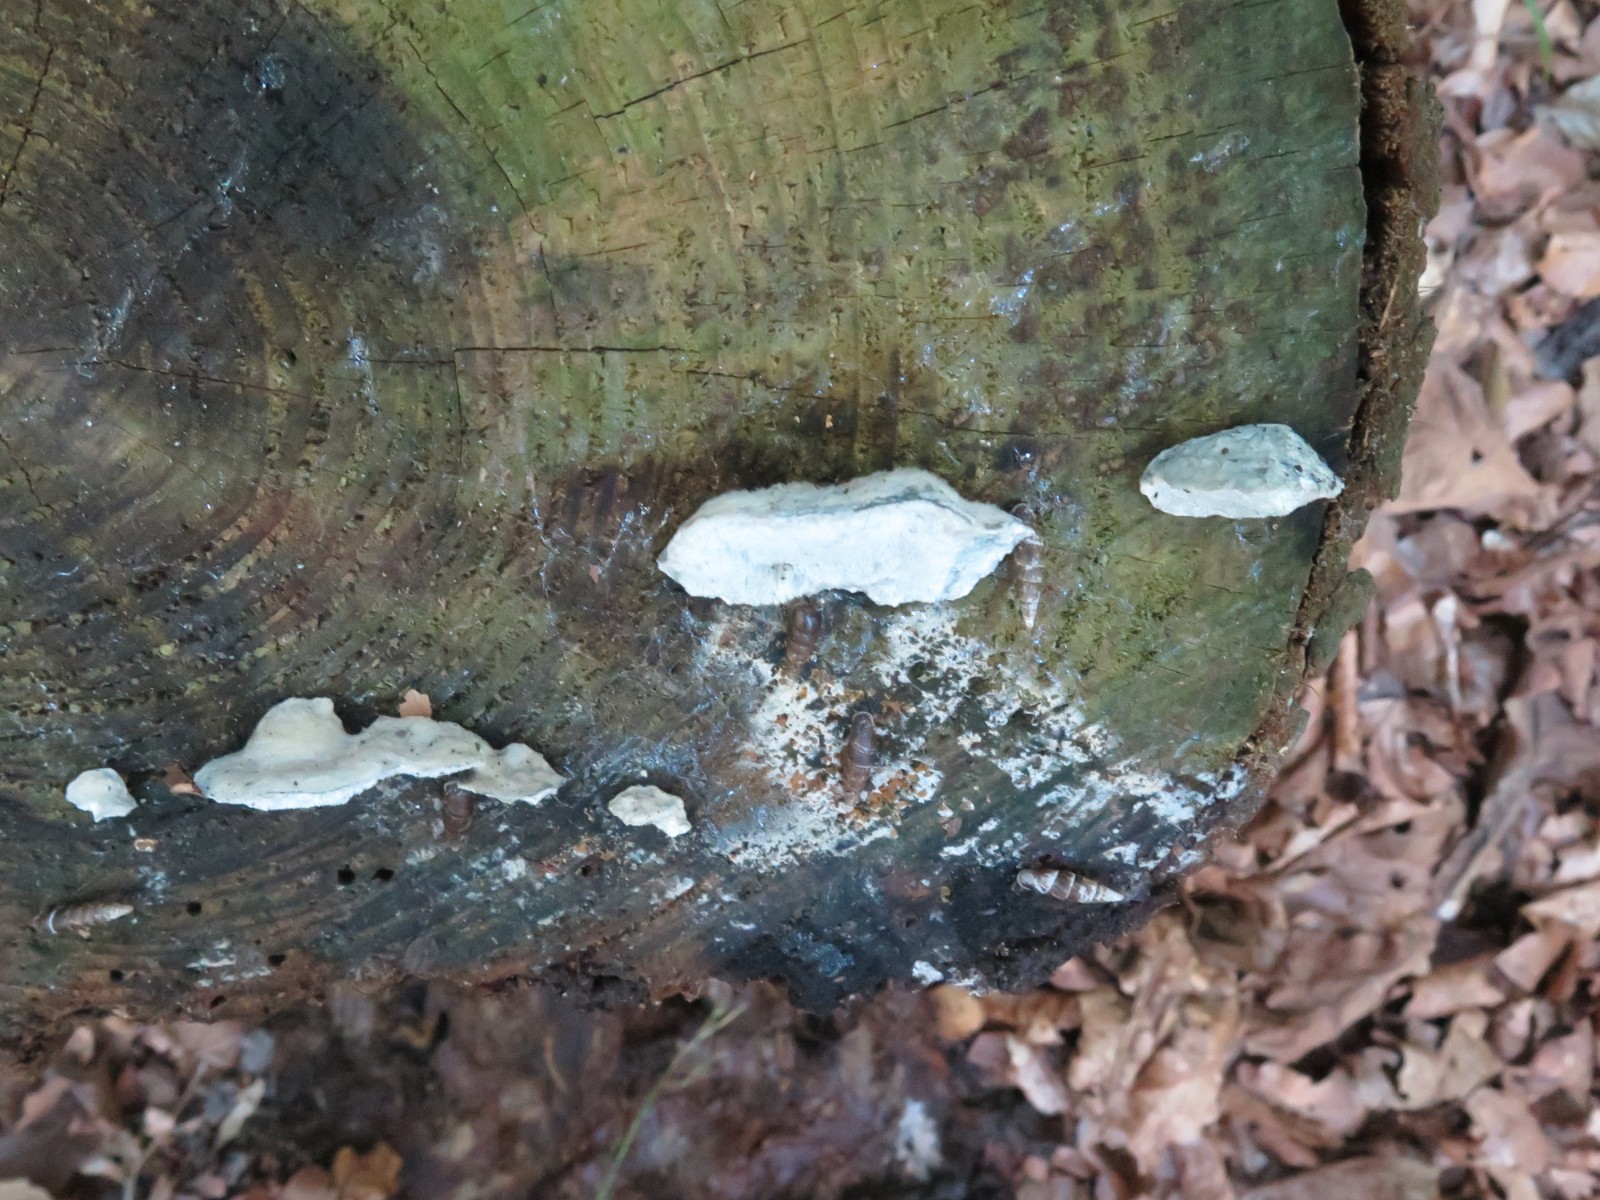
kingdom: Fungi
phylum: Basidiomycota
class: Agaricomycetes
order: Polyporales
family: Polyporaceae
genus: Cyanosporus
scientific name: Cyanosporus caesius
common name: blålig kødporesvamp
